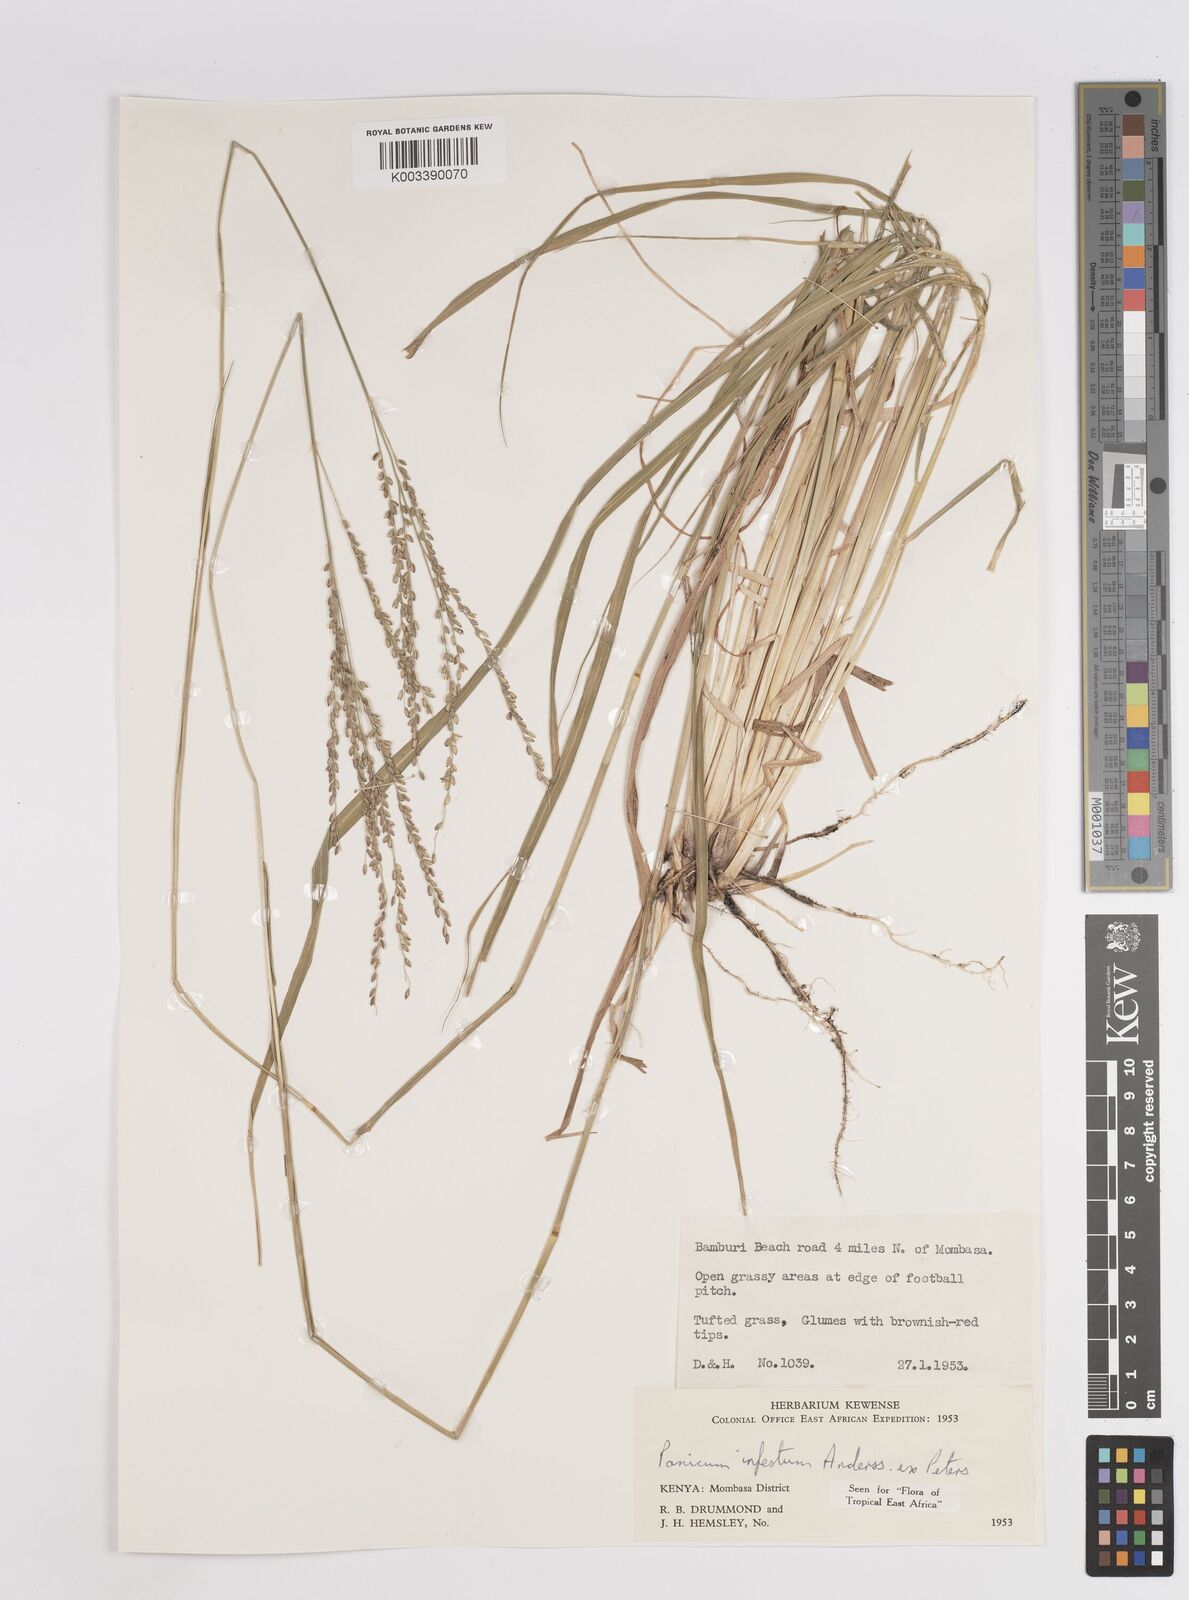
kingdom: Plantae
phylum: Tracheophyta
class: Liliopsida
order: Poales
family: Poaceae
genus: Megathyrsus
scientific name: Megathyrsus infestus
